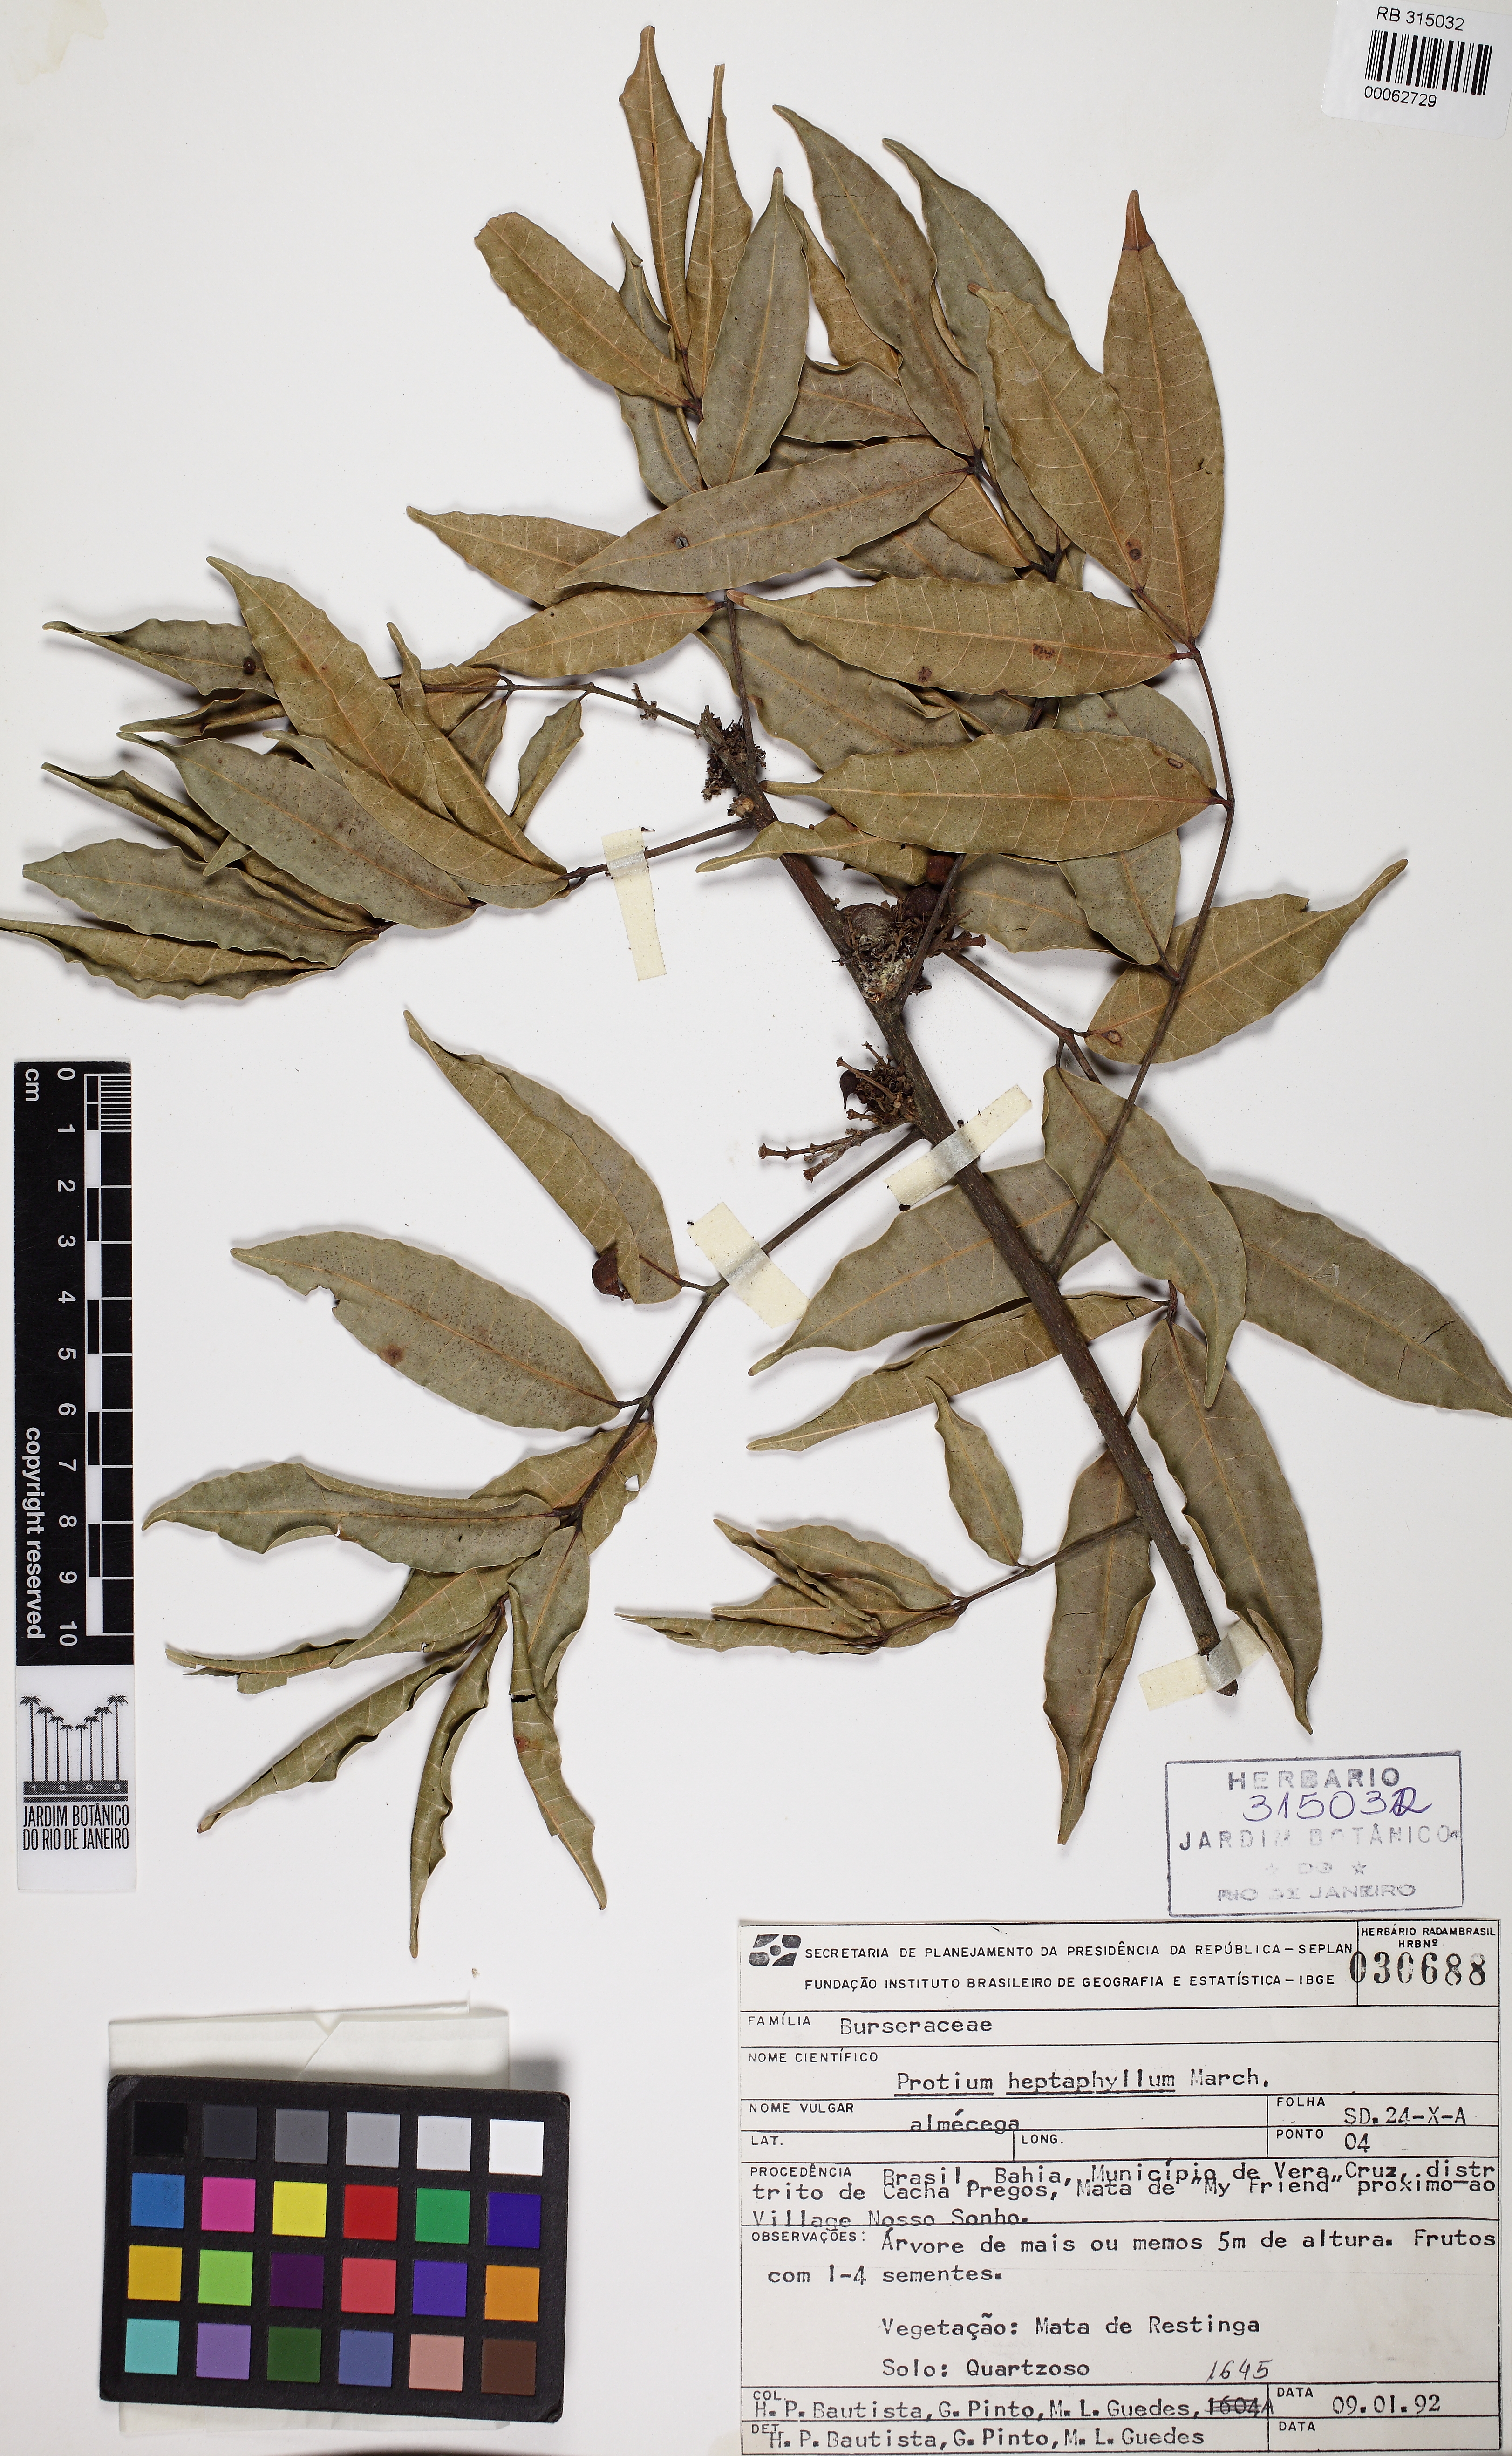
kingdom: Plantae
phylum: Tracheophyta
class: Magnoliopsida
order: Sapindales
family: Burseraceae
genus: Protium
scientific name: Protium heptaphyllum
